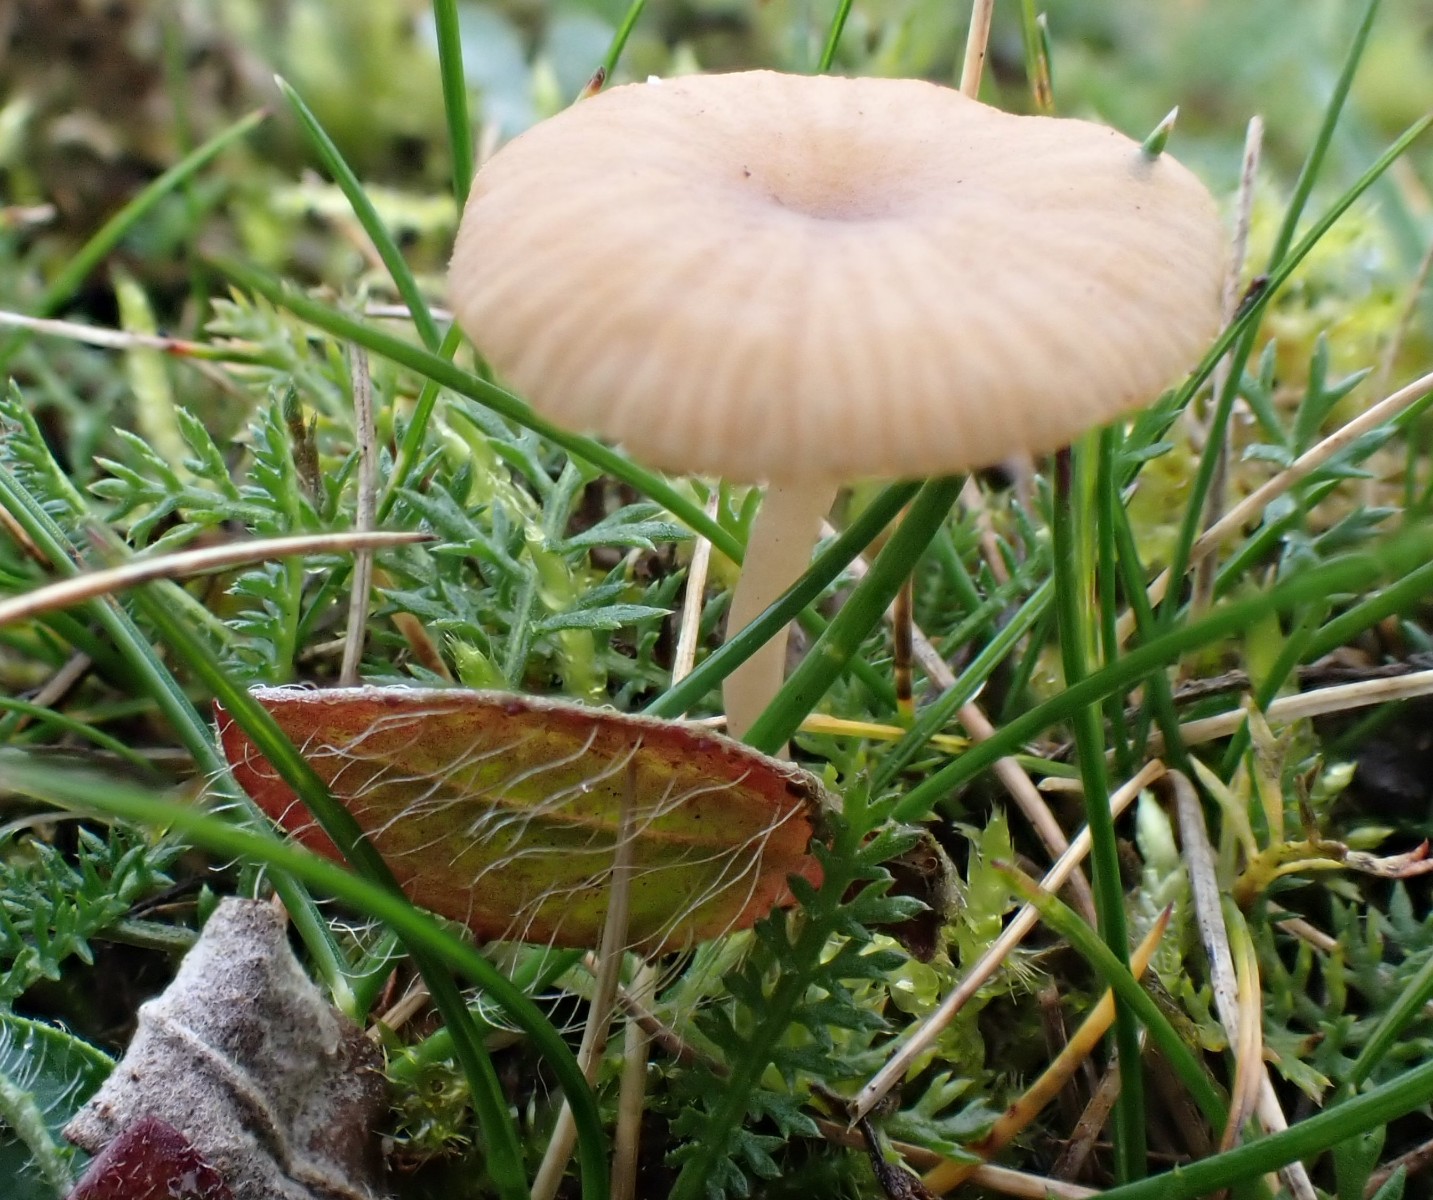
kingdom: Fungi
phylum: Basidiomycota
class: Agaricomycetes
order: Agaricales
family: Tricholomataceae
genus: Omphalina
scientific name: Omphalina pyxidata
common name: rødbrun navlehat
